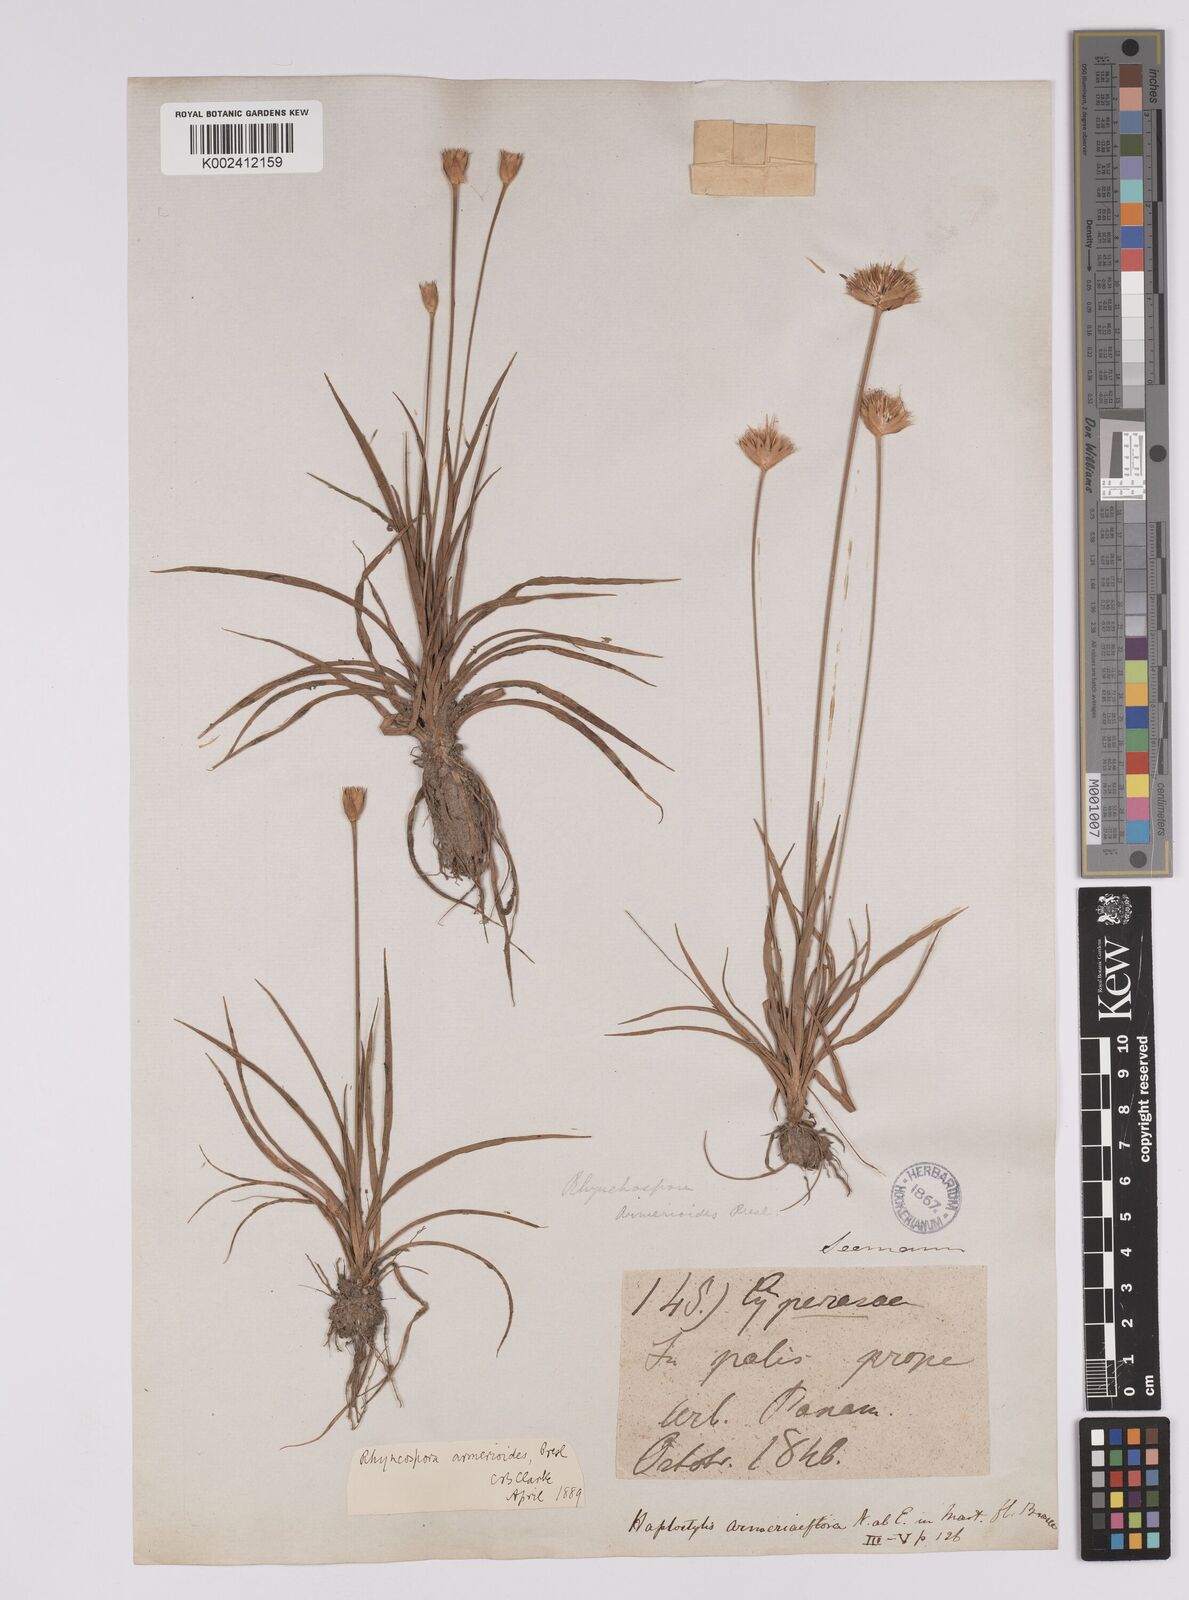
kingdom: Plantae
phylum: Tracheophyta
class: Liliopsida
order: Poales
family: Cyperaceae
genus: Rhynchospora
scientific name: Rhynchospora armerioides
